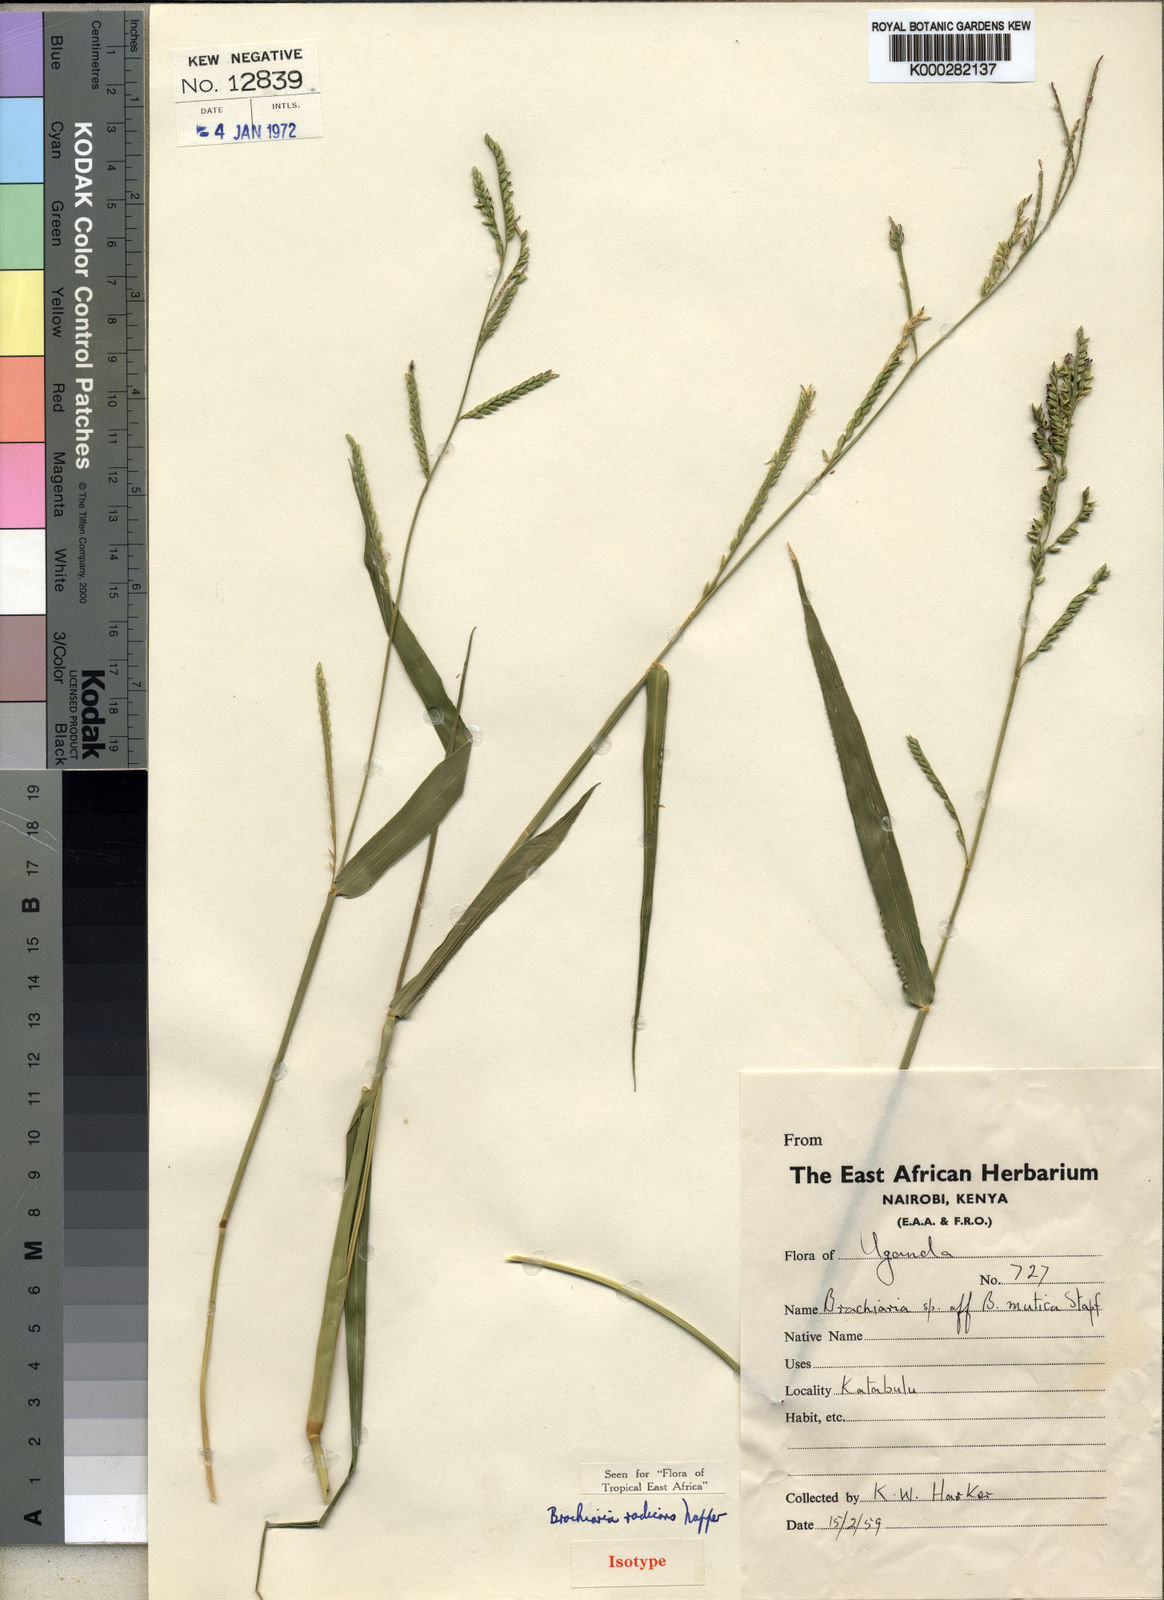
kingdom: Plantae
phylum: Tracheophyta
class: Liliopsida
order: Poales
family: Poaceae
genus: Urochloa
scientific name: Urochloa arrecta
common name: African signalgrass
